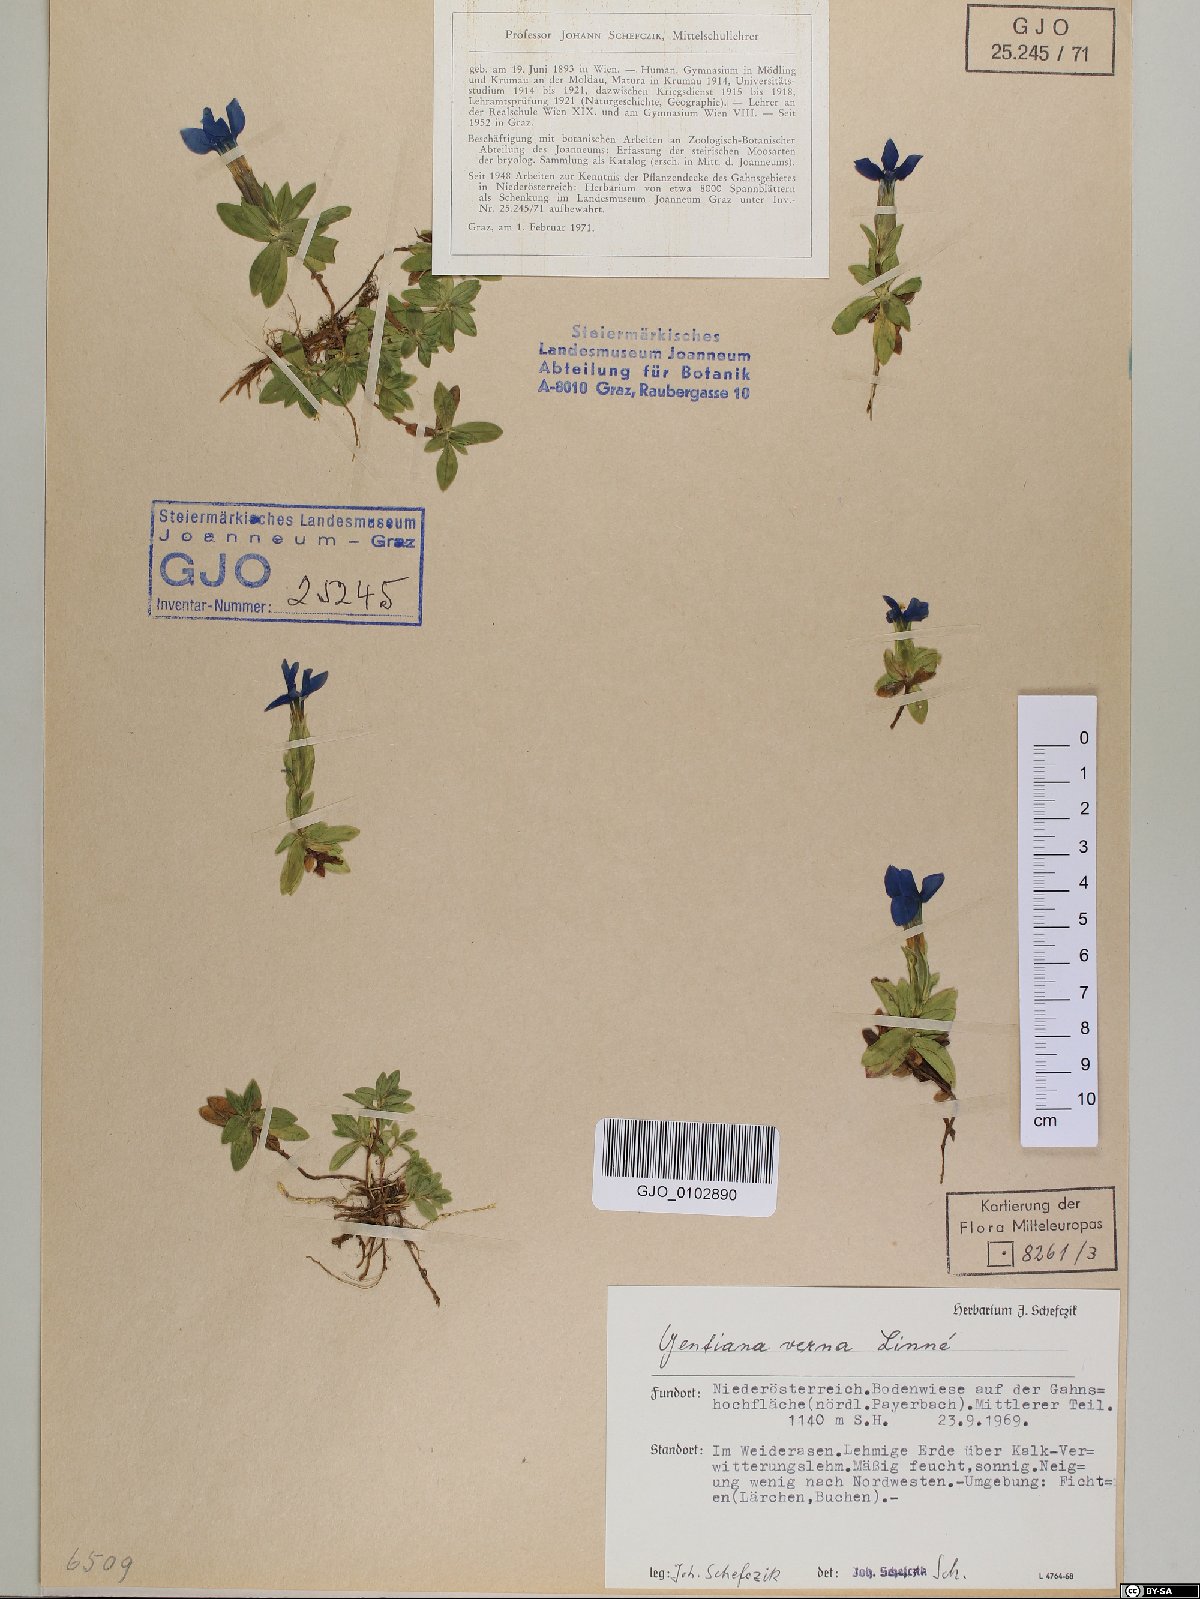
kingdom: Plantae
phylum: Tracheophyta
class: Magnoliopsida
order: Gentianales
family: Gentianaceae
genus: Gentiana
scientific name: Gentiana verna
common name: Spring gentian
